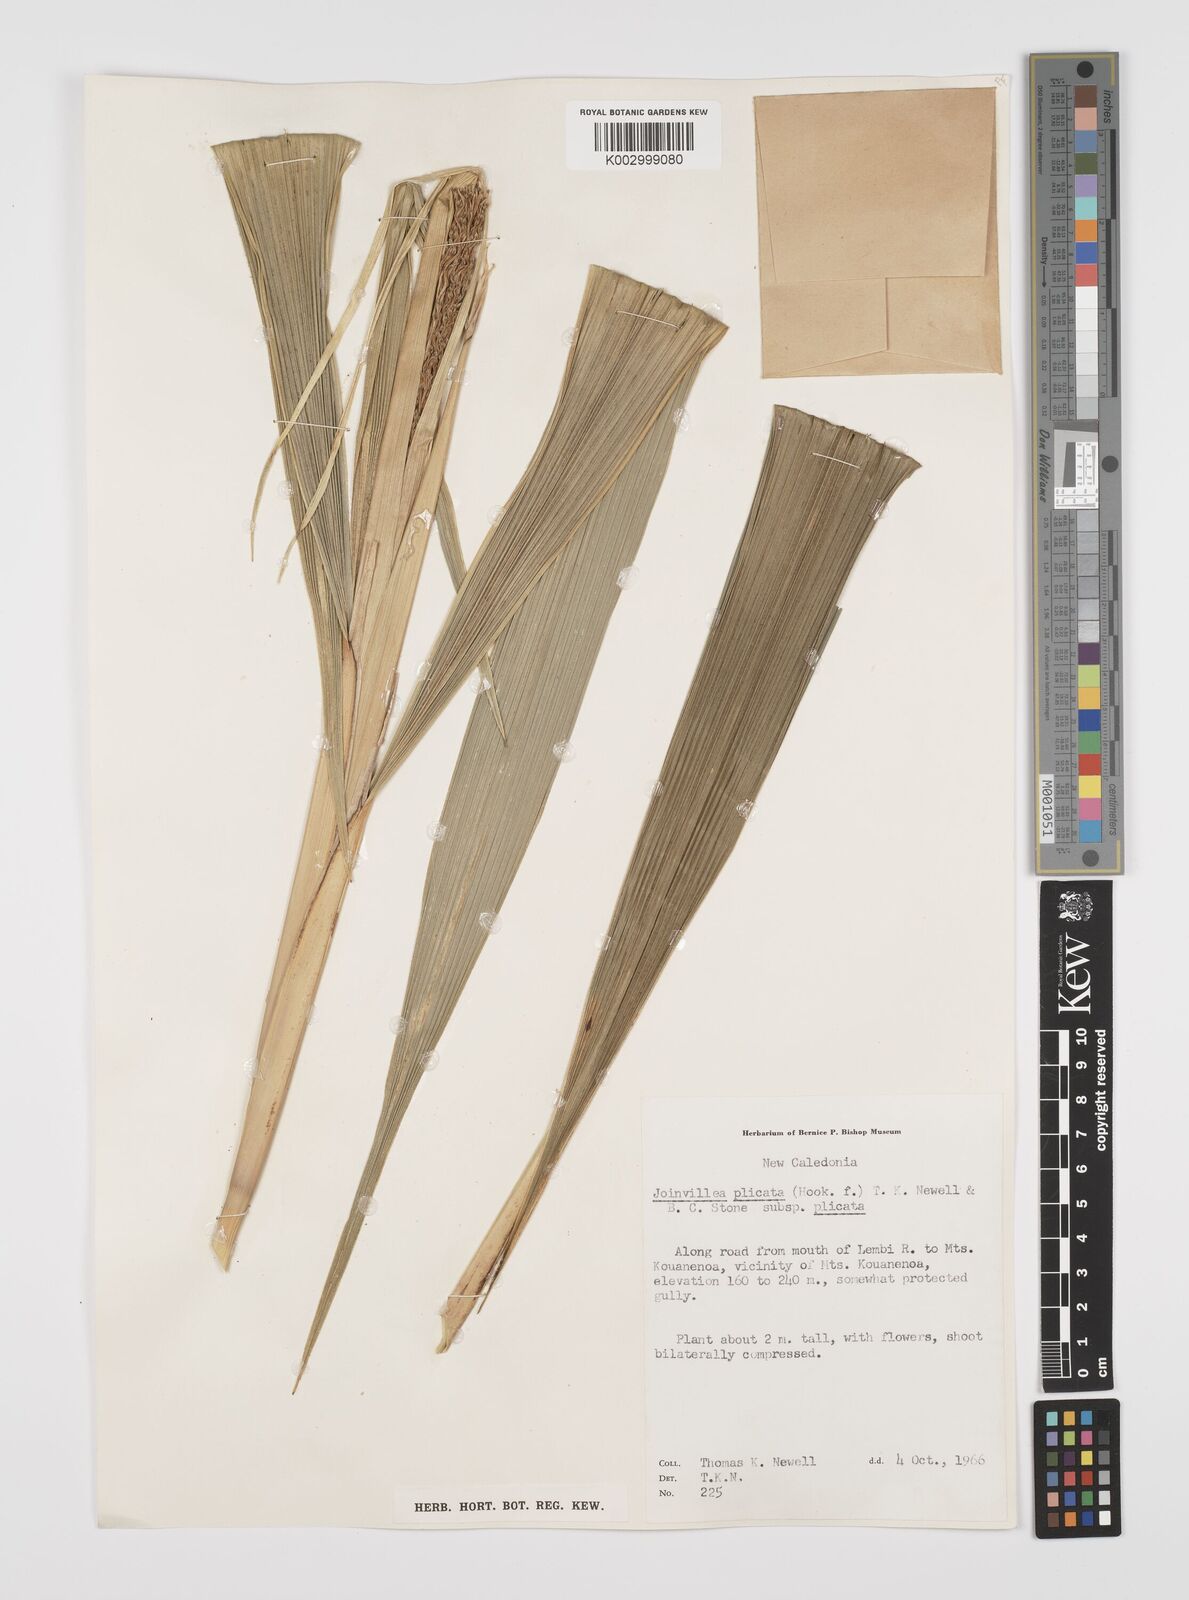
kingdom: Plantae
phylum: Tracheophyta
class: Liliopsida
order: Poales
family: Joinvilleaceae
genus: Joinvillea
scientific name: Joinvillea plicata
